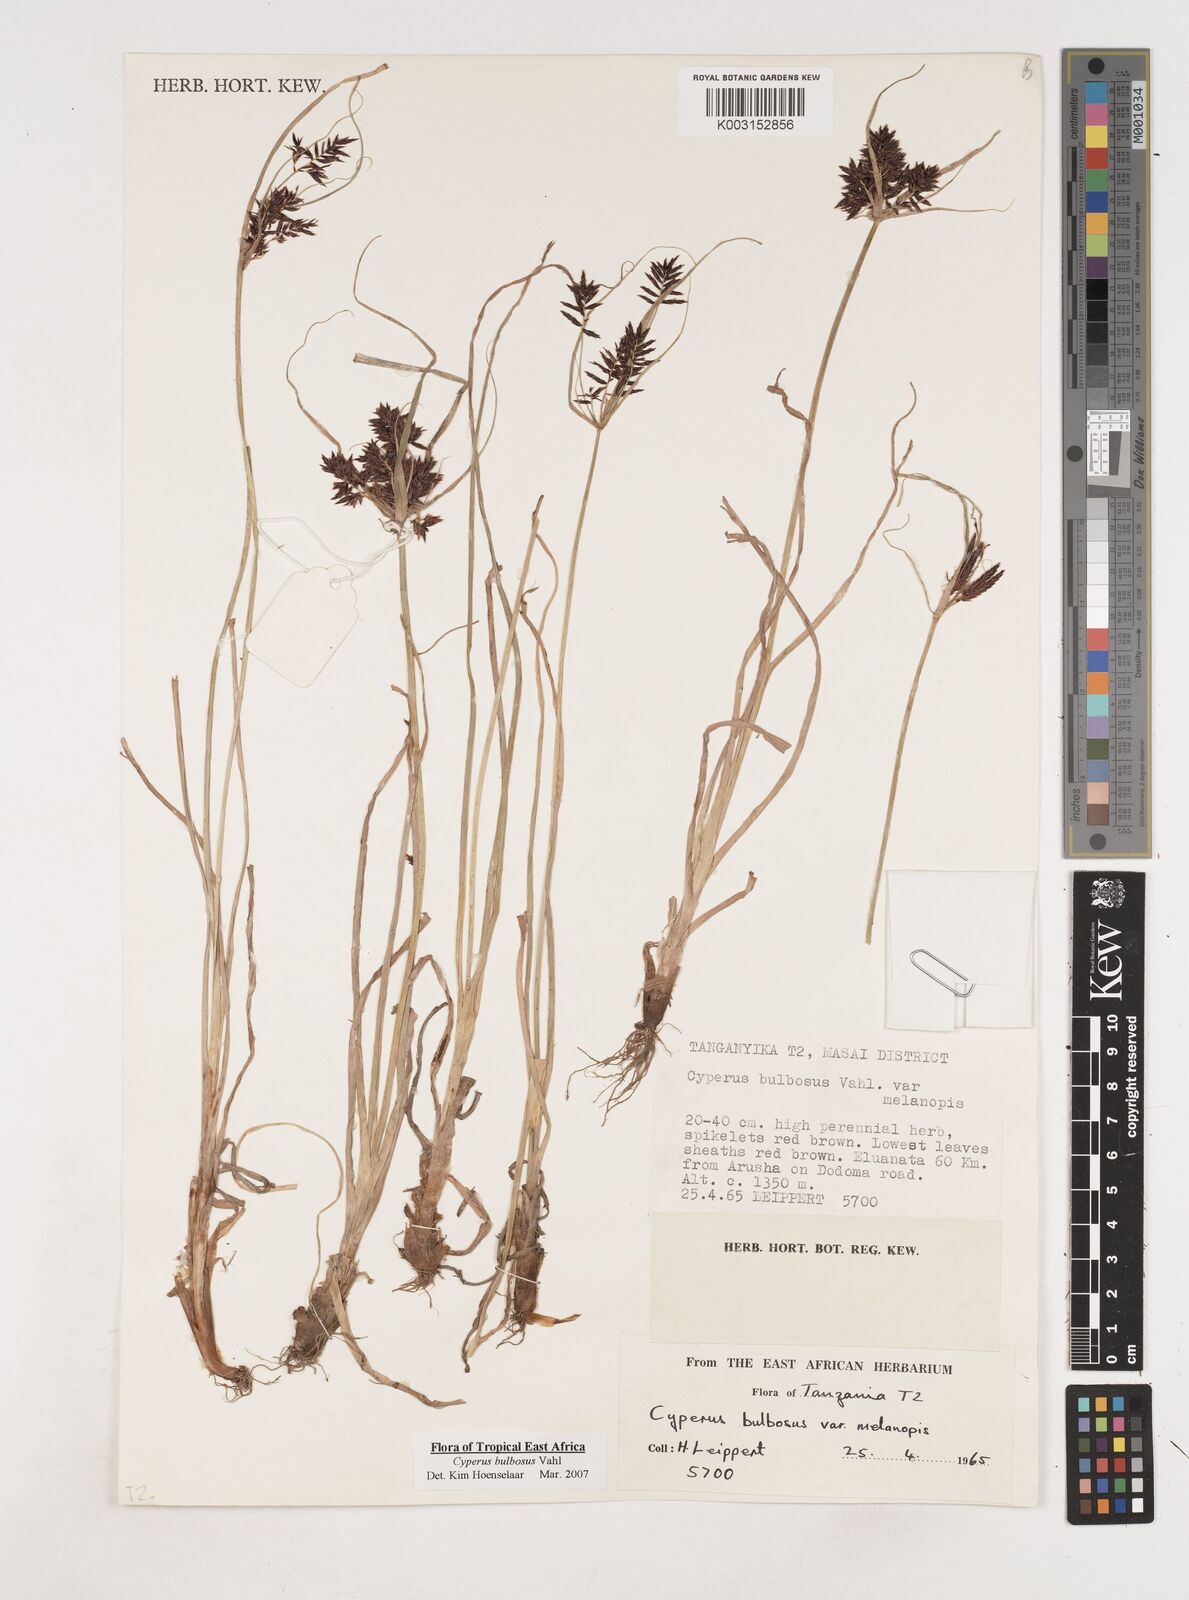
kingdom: Plantae
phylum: Tracheophyta
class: Liliopsida
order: Poales
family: Cyperaceae
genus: Cyperus
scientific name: Cyperus bulbosus
